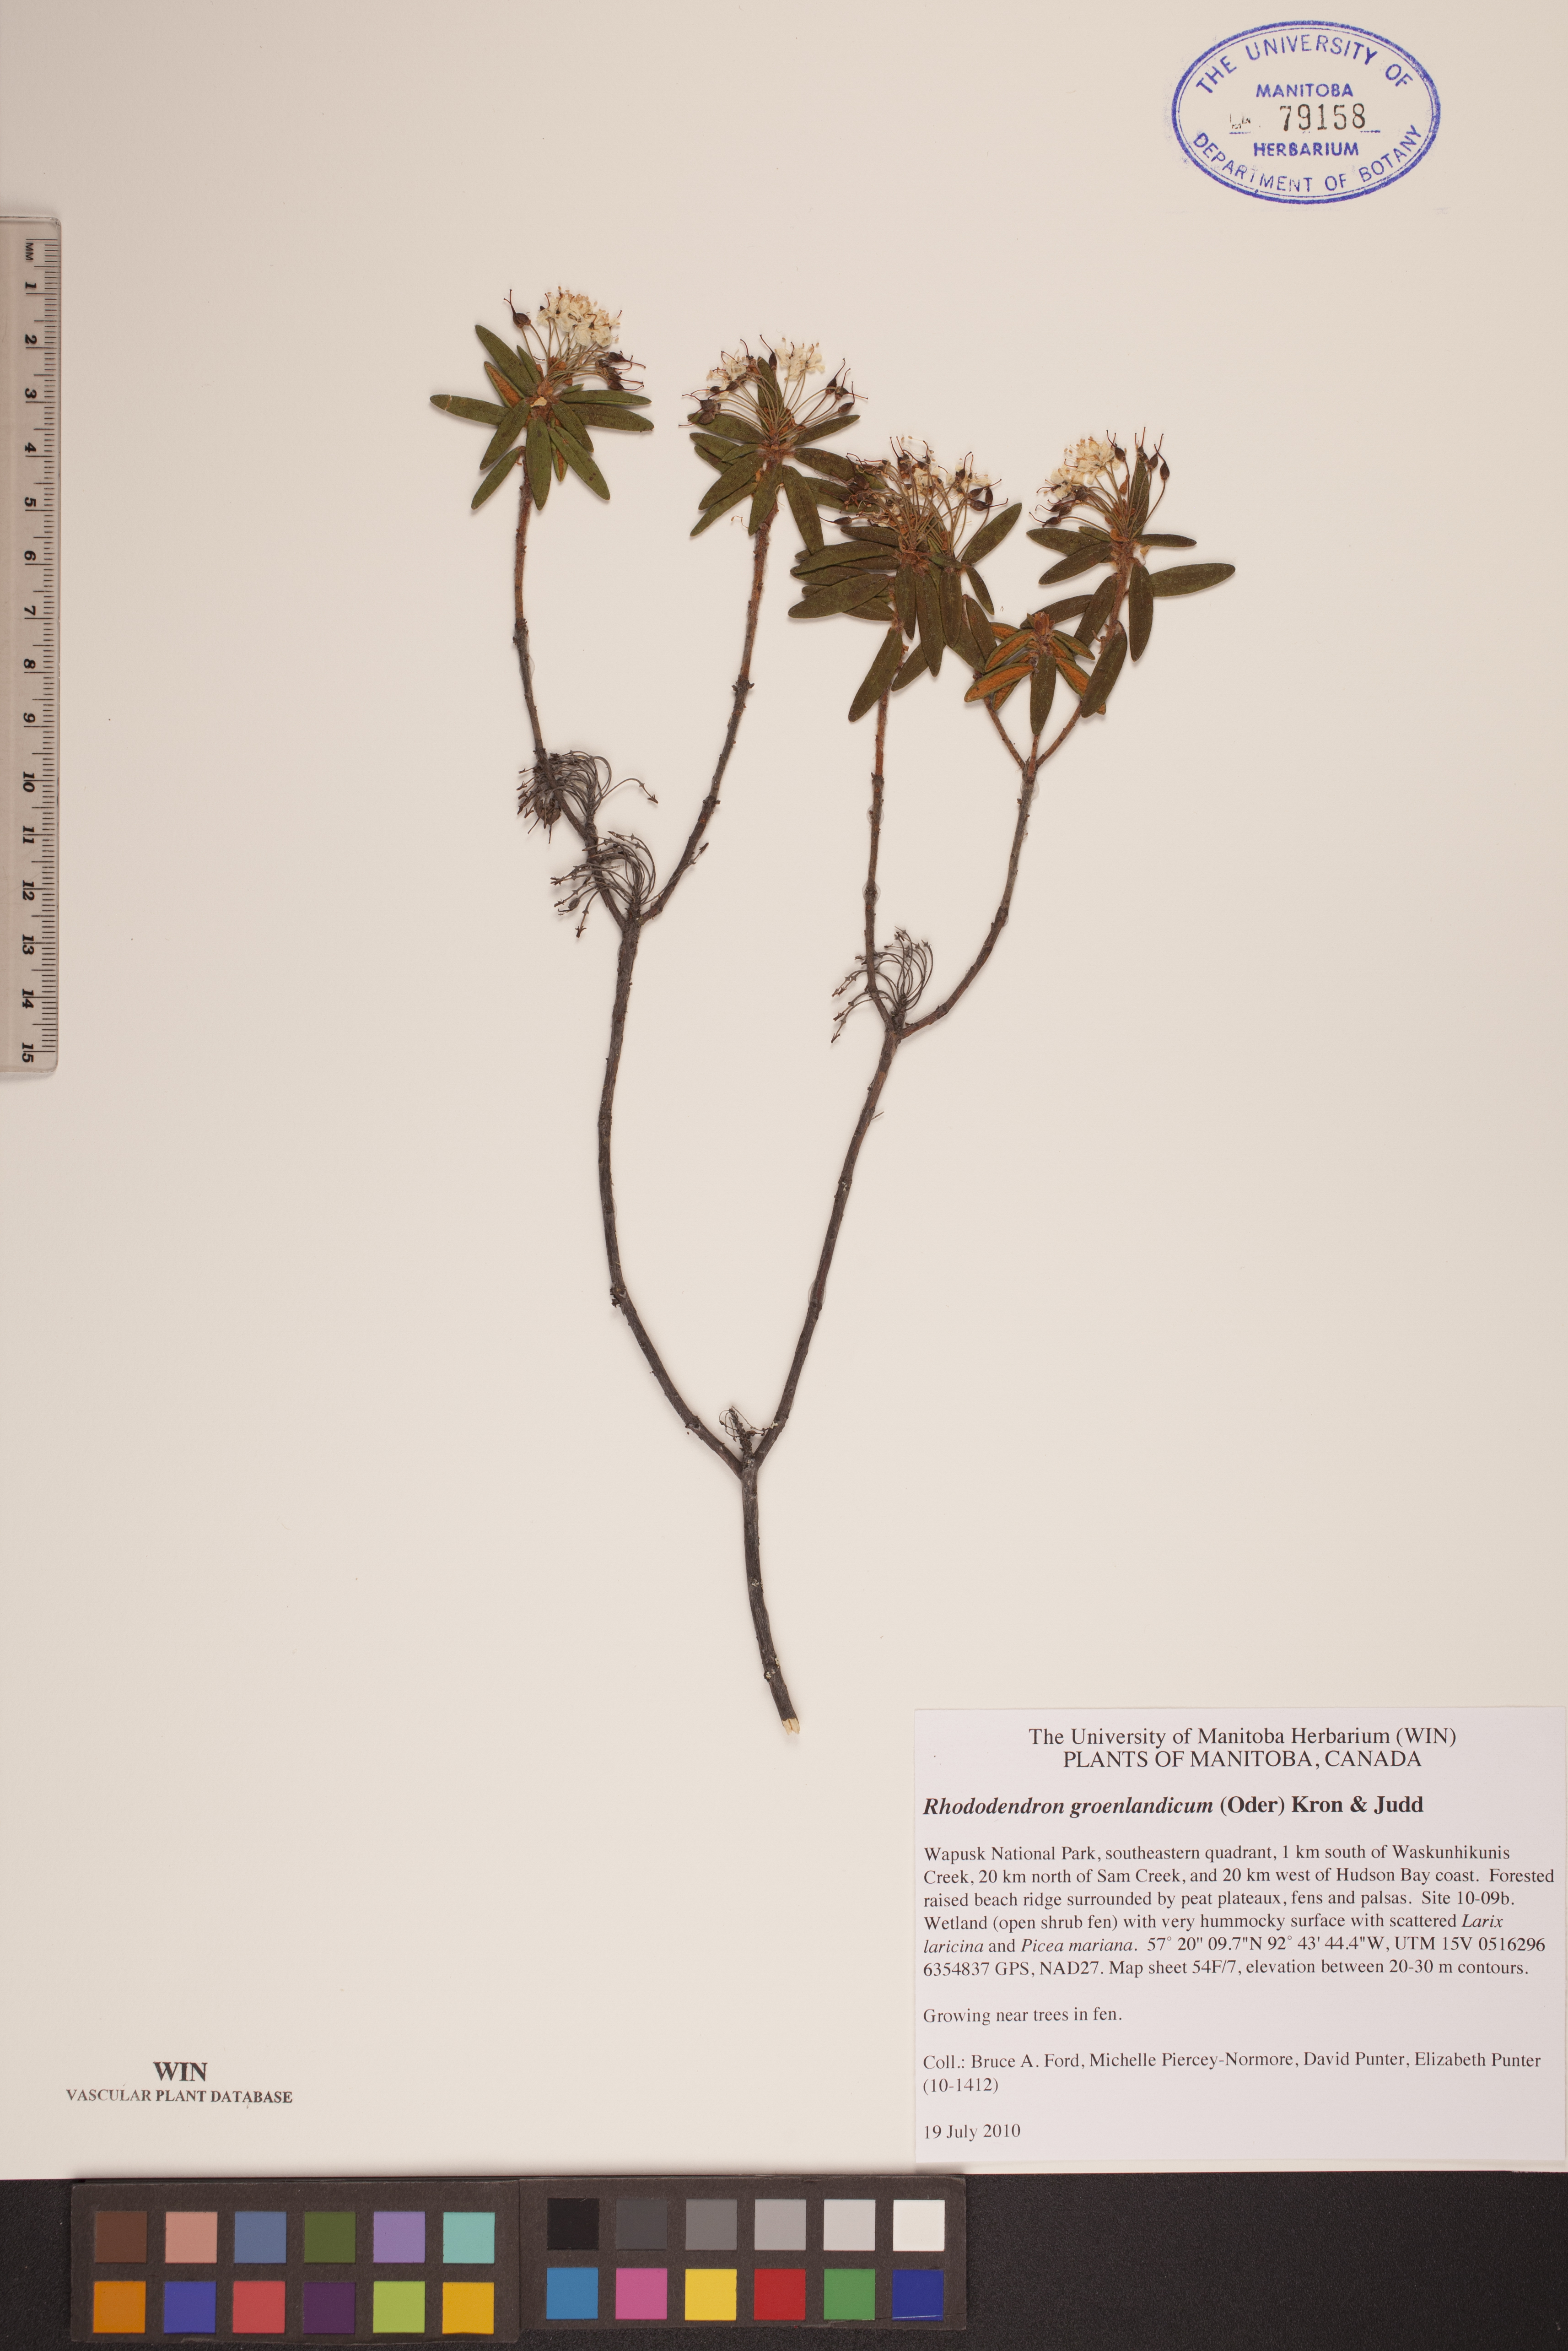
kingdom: Plantae
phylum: Tracheophyta
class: Magnoliopsida
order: Ericales
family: Ericaceae
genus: Rhododendron
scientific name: Rhododendron groenlandicum
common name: Bog labrador tea
